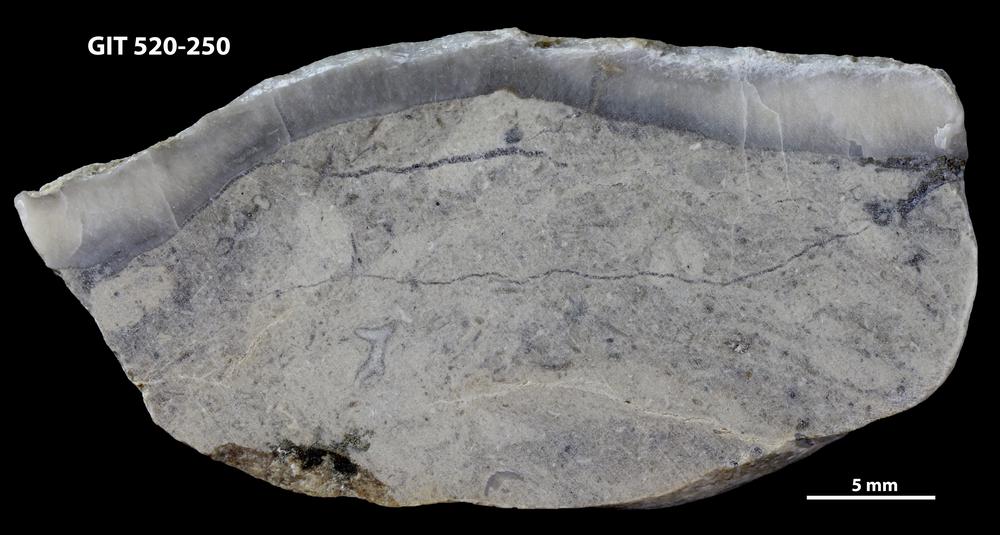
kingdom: Animalia
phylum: Cnidaria
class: Anthozoa
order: Heliolitina
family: Coccoserididae
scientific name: Coccoserididae
